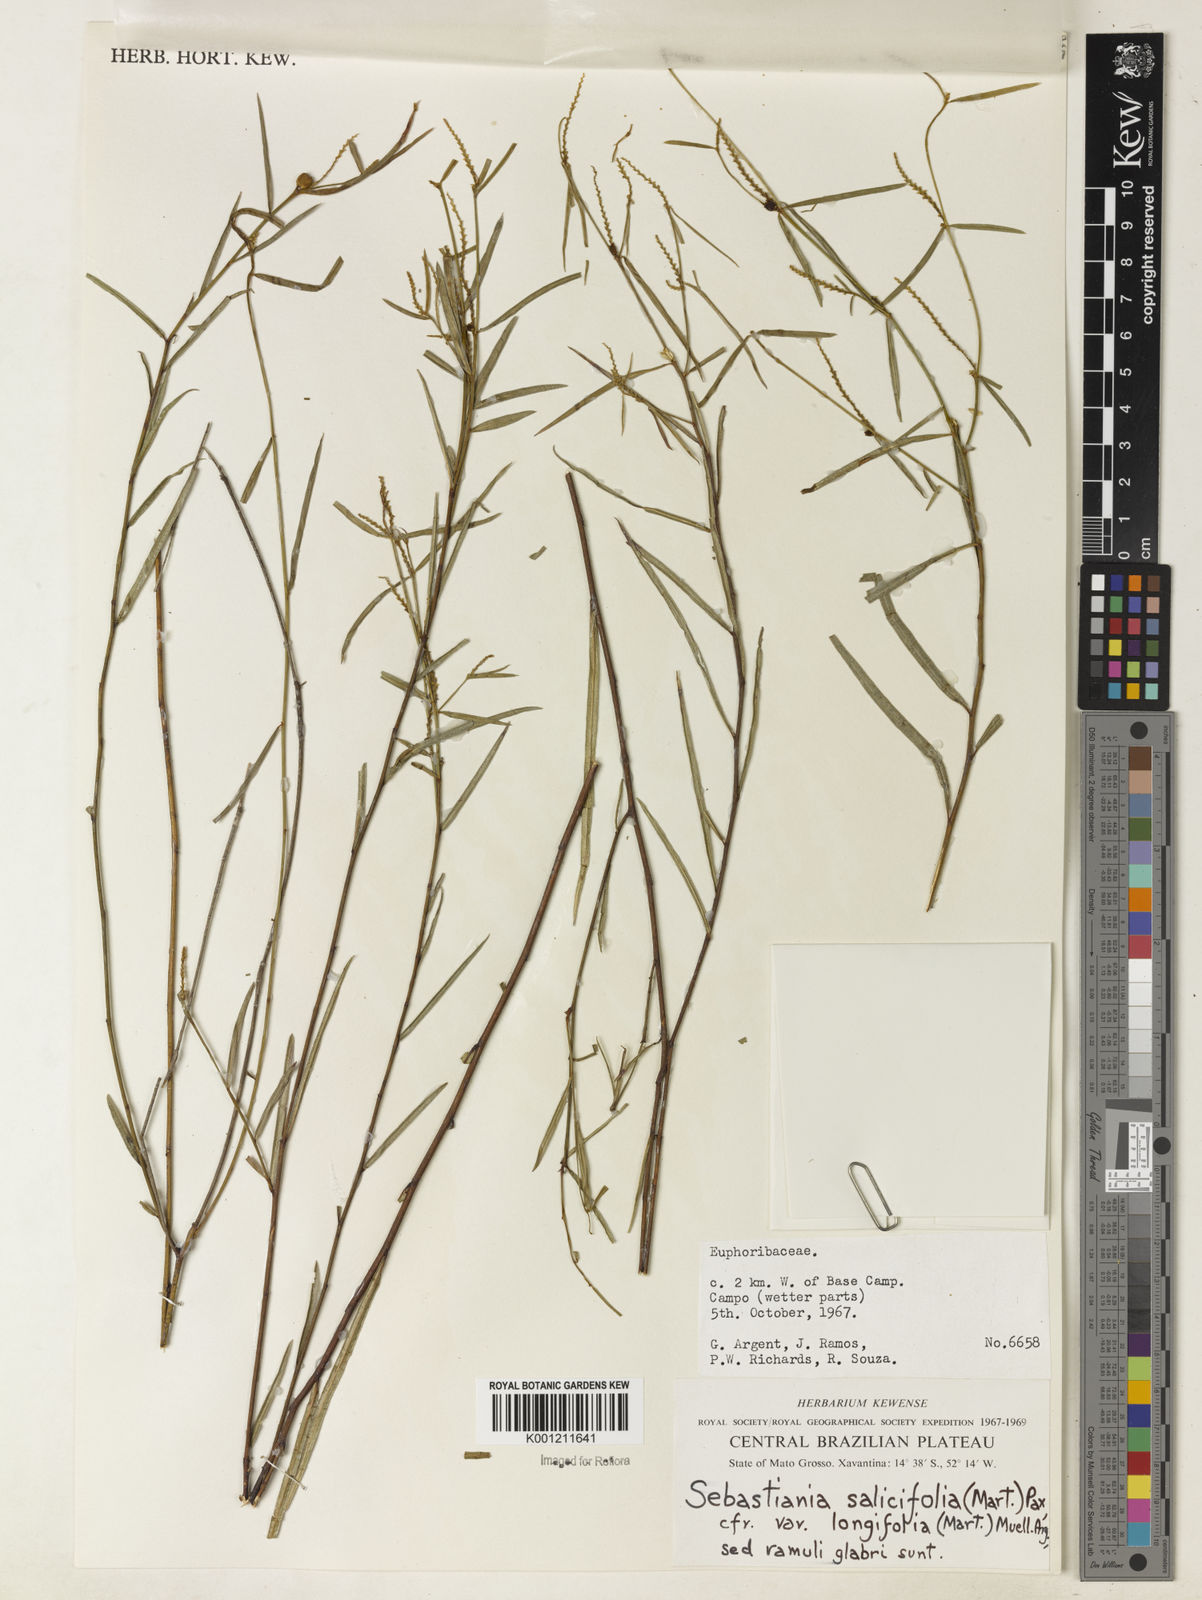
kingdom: Plantae
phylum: Tracheophyta
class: Magnoliopsida
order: Malpighiales
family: Euphorbiaceae
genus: Microstachys
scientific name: Microstachys
